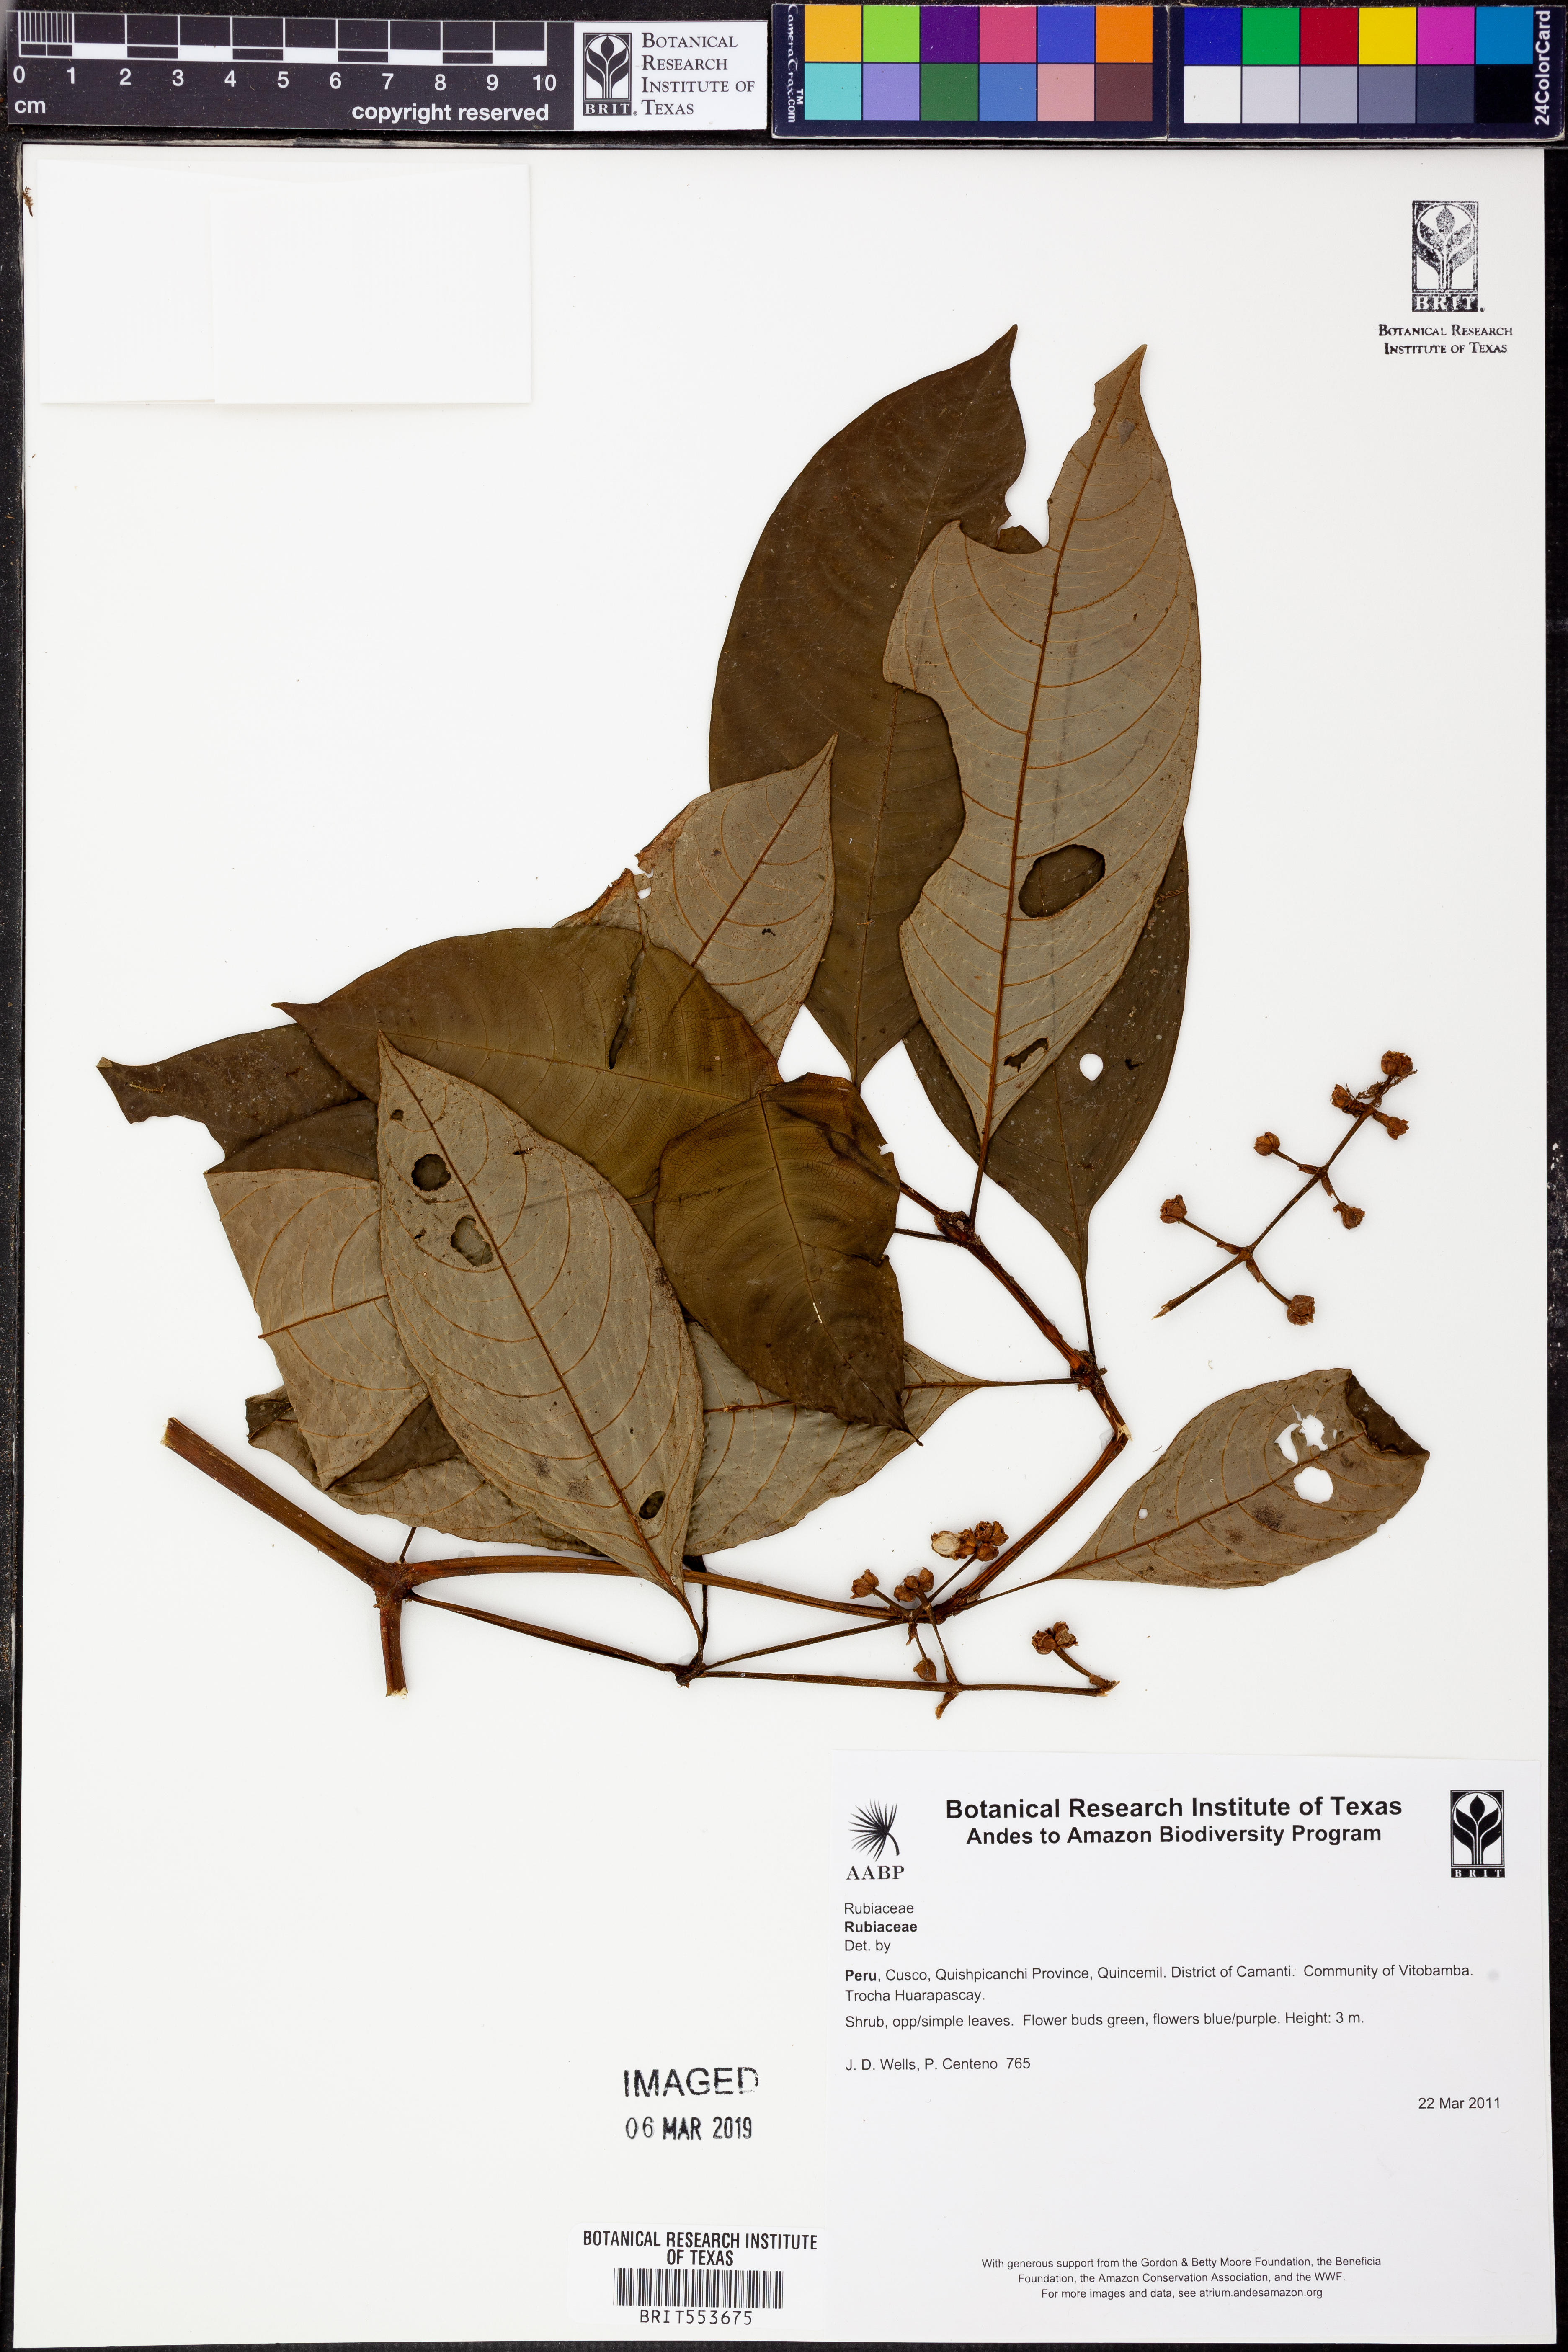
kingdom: Plantae
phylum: Tracheophyta
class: Magnoliopsida
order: Gentianales
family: Rubiaceae
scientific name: Rubiaceae
